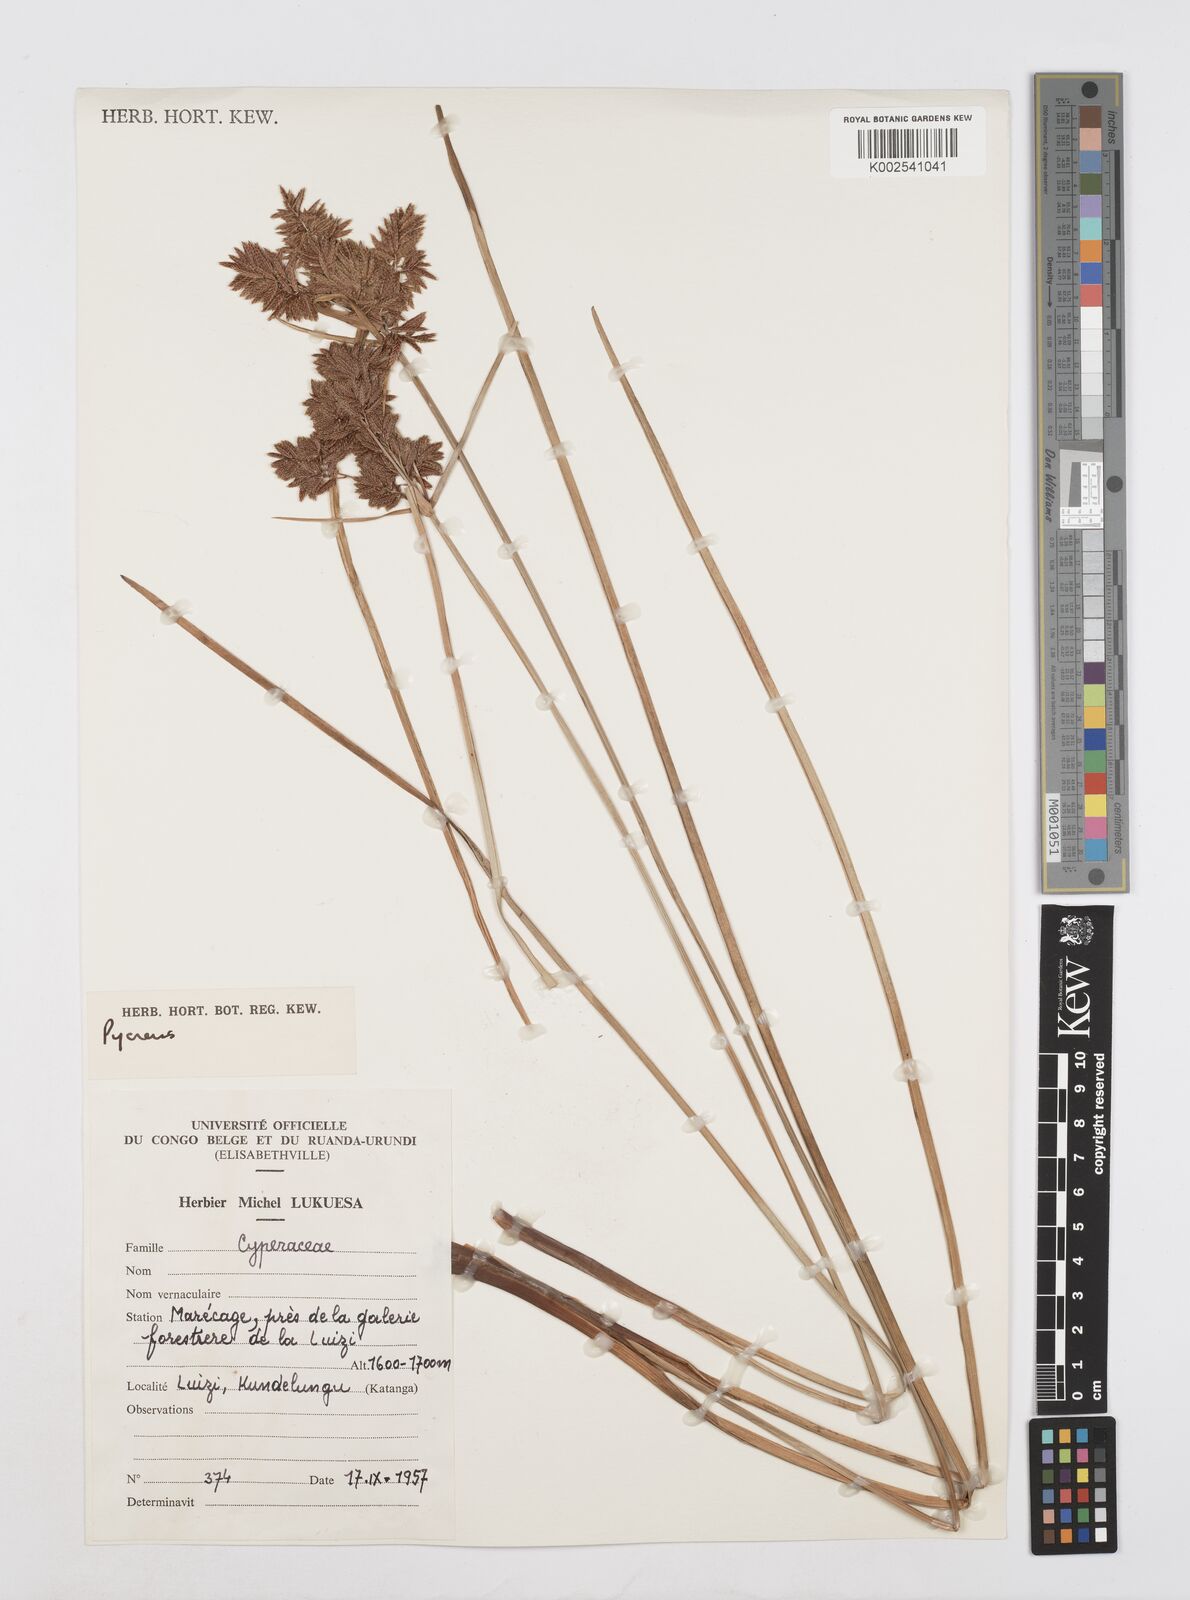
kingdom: Plantae
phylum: Tracheophyta
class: Liliopsida
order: Poales
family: Cyperaceae
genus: Cyperus
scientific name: Cyperus
